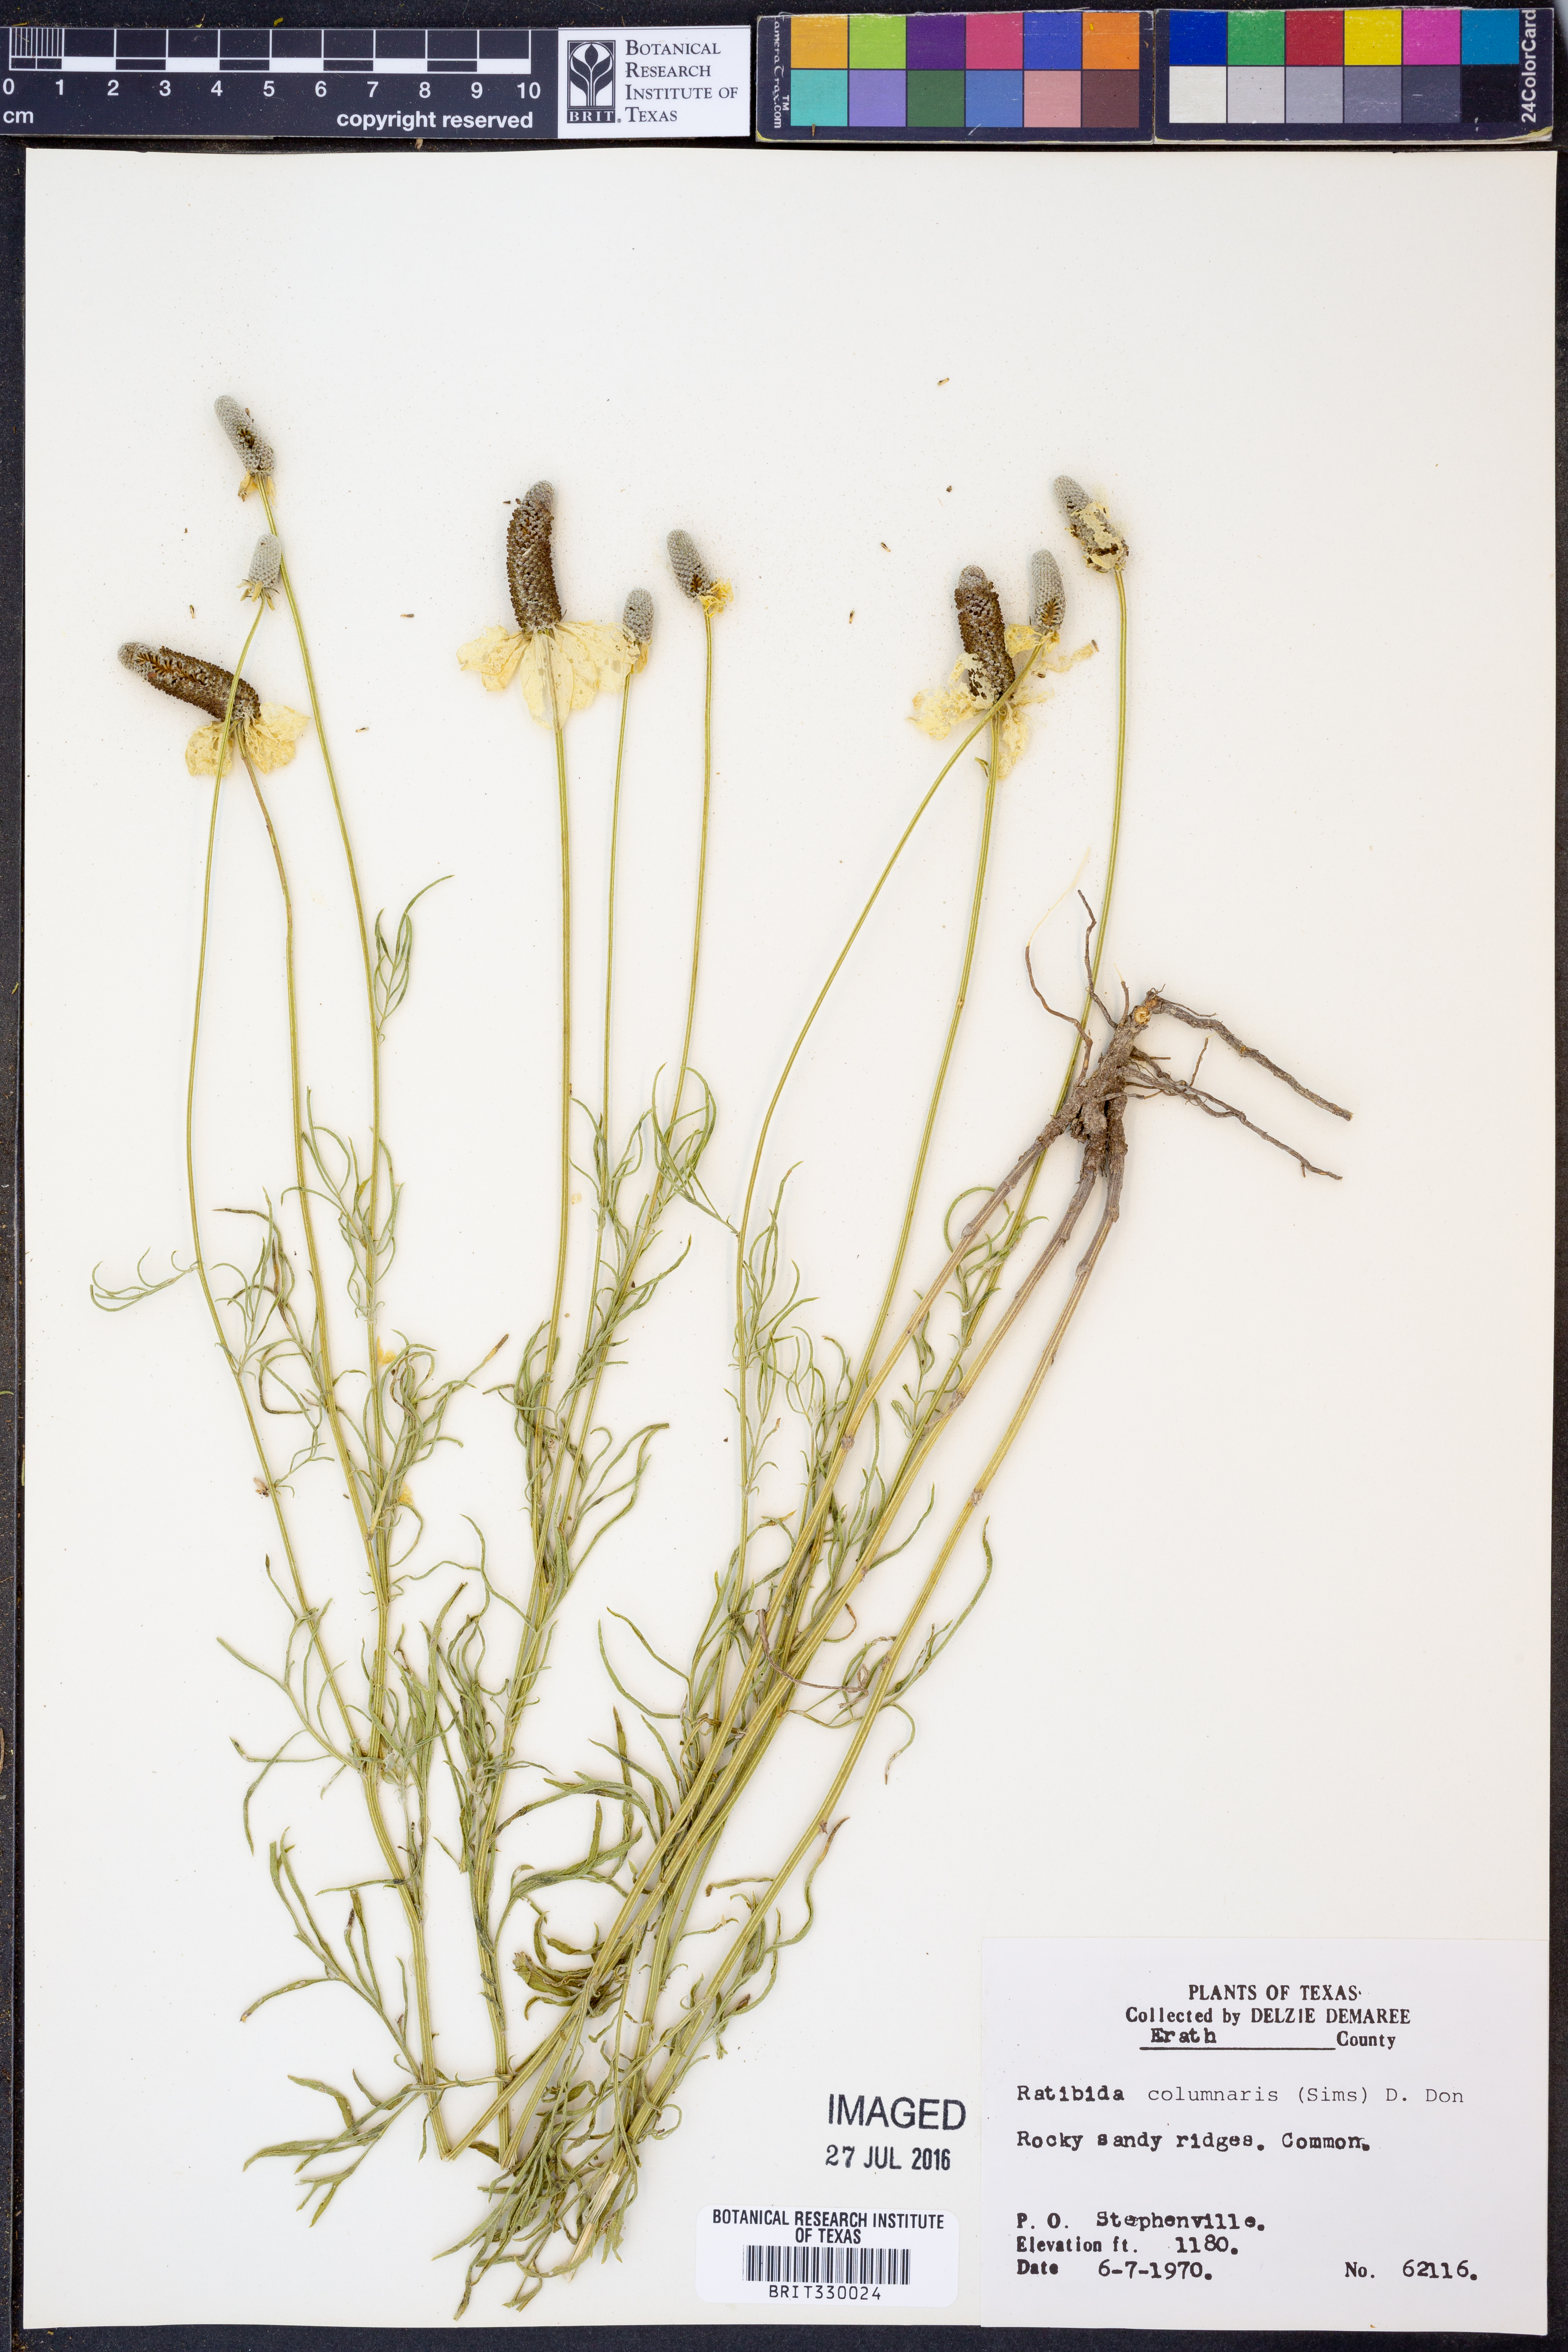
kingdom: Plantae
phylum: Tracheophyta
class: Magnoliopsida
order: Asterales
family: Asteraceae
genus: Ratibida
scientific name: Ratibida columnifera
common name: Prairie coneflower
